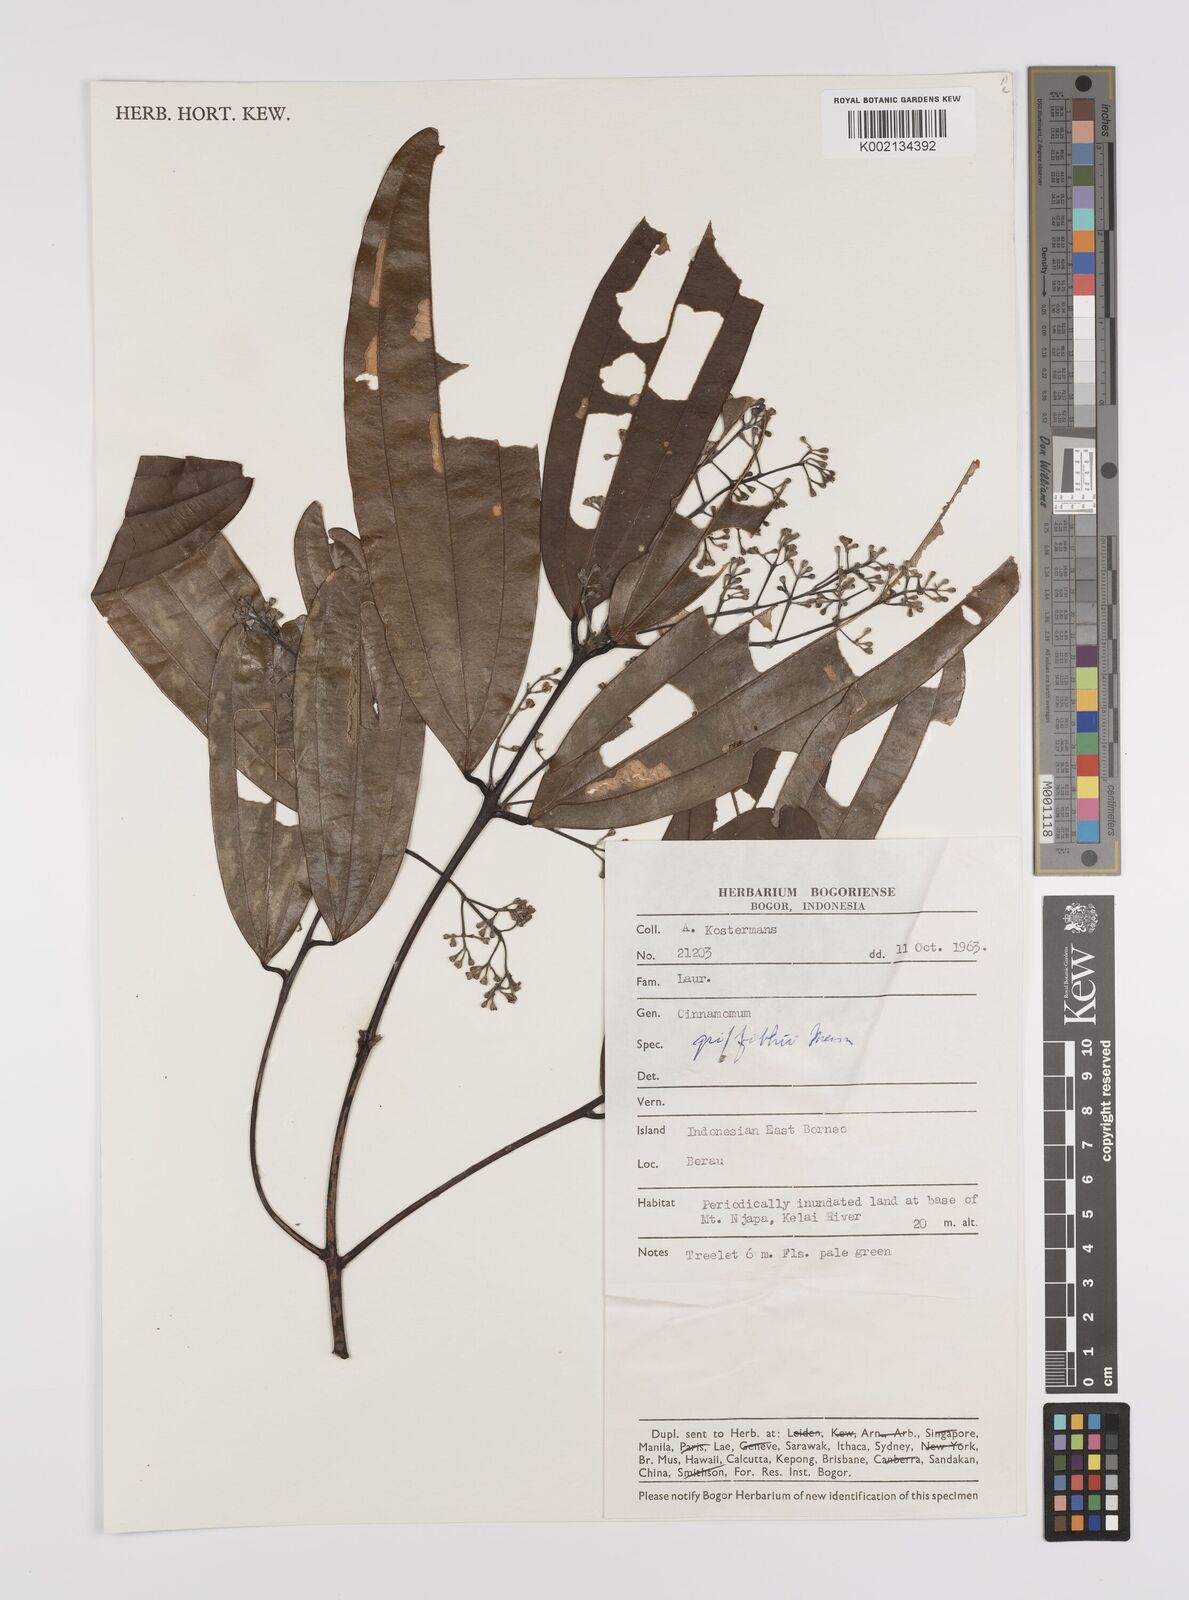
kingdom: Plantae
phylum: Tracheophyta
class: Magnoliopsida
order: Laurales
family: Lauraceae
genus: Cinnamomum
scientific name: Cinnamomum iners
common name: Wild cinnamon
